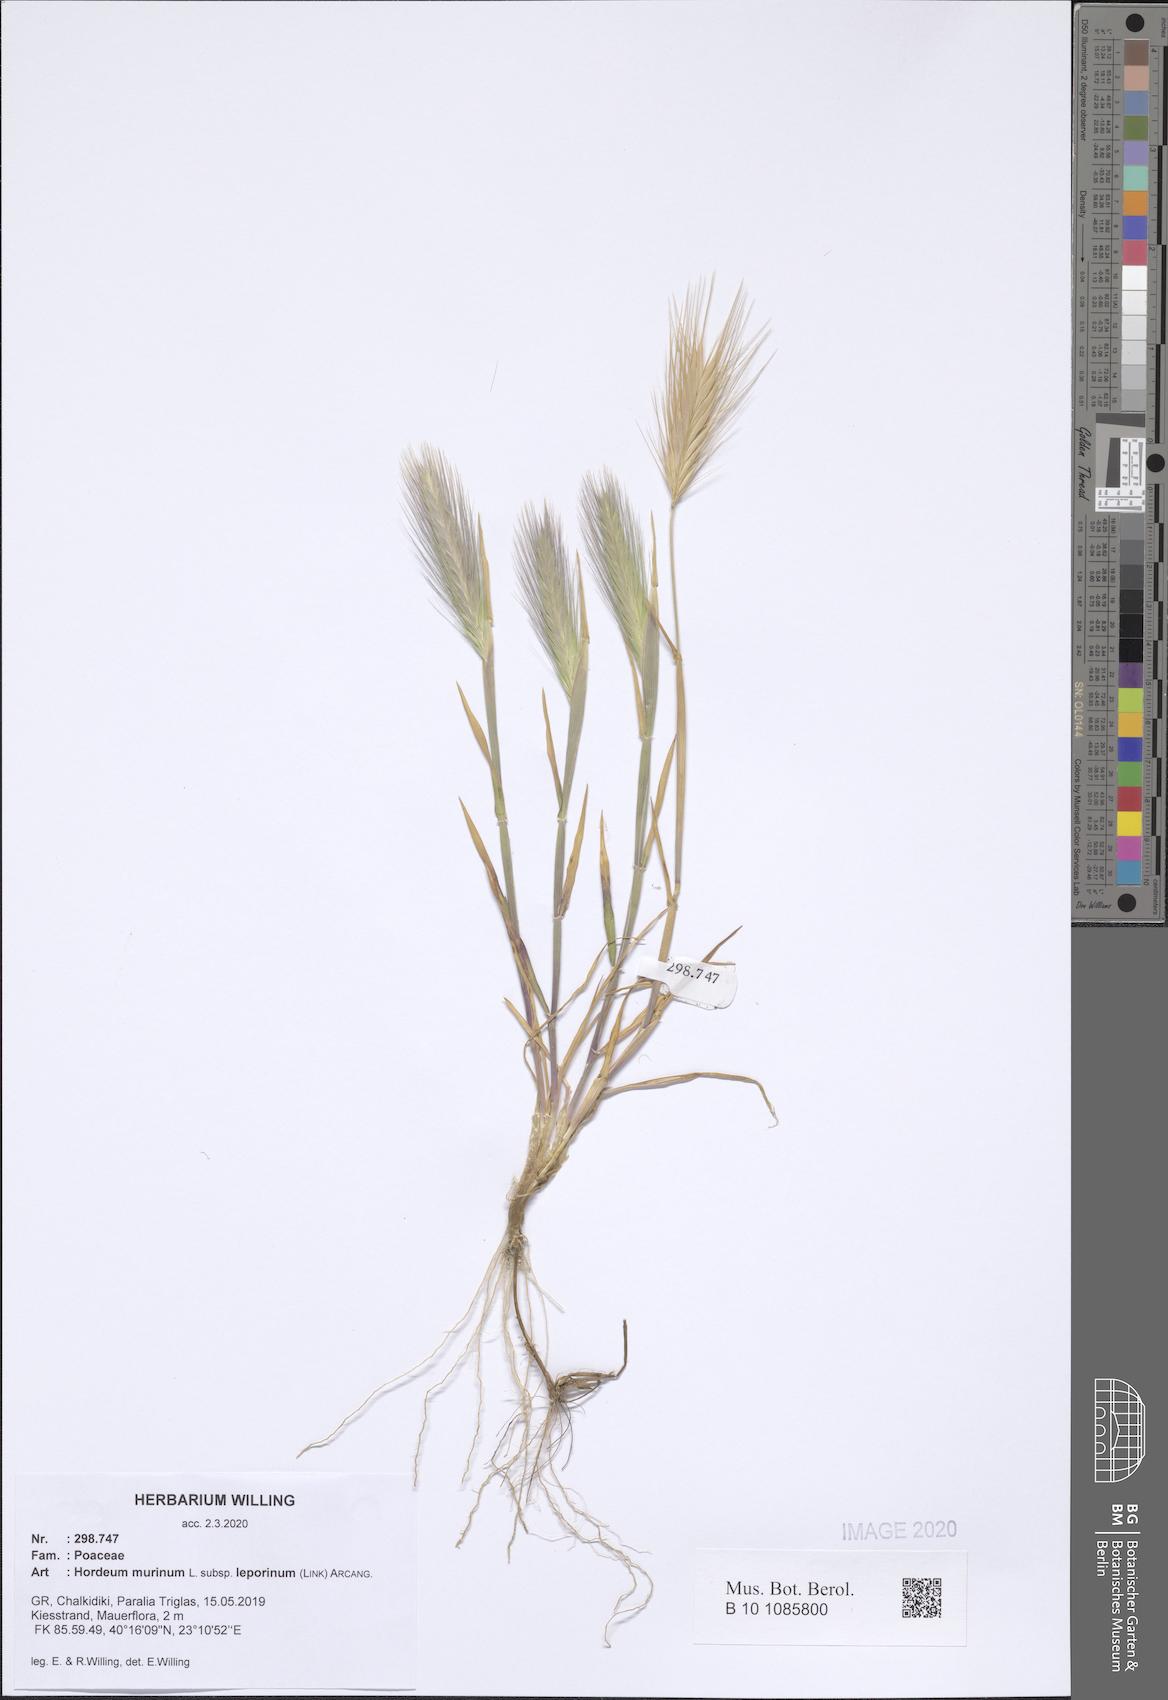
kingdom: Plantae
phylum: Tracheophyta
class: Liliopsida
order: Poales
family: Poaceae
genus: Hordeum
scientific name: Hordeum murinum
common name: Wall barley
